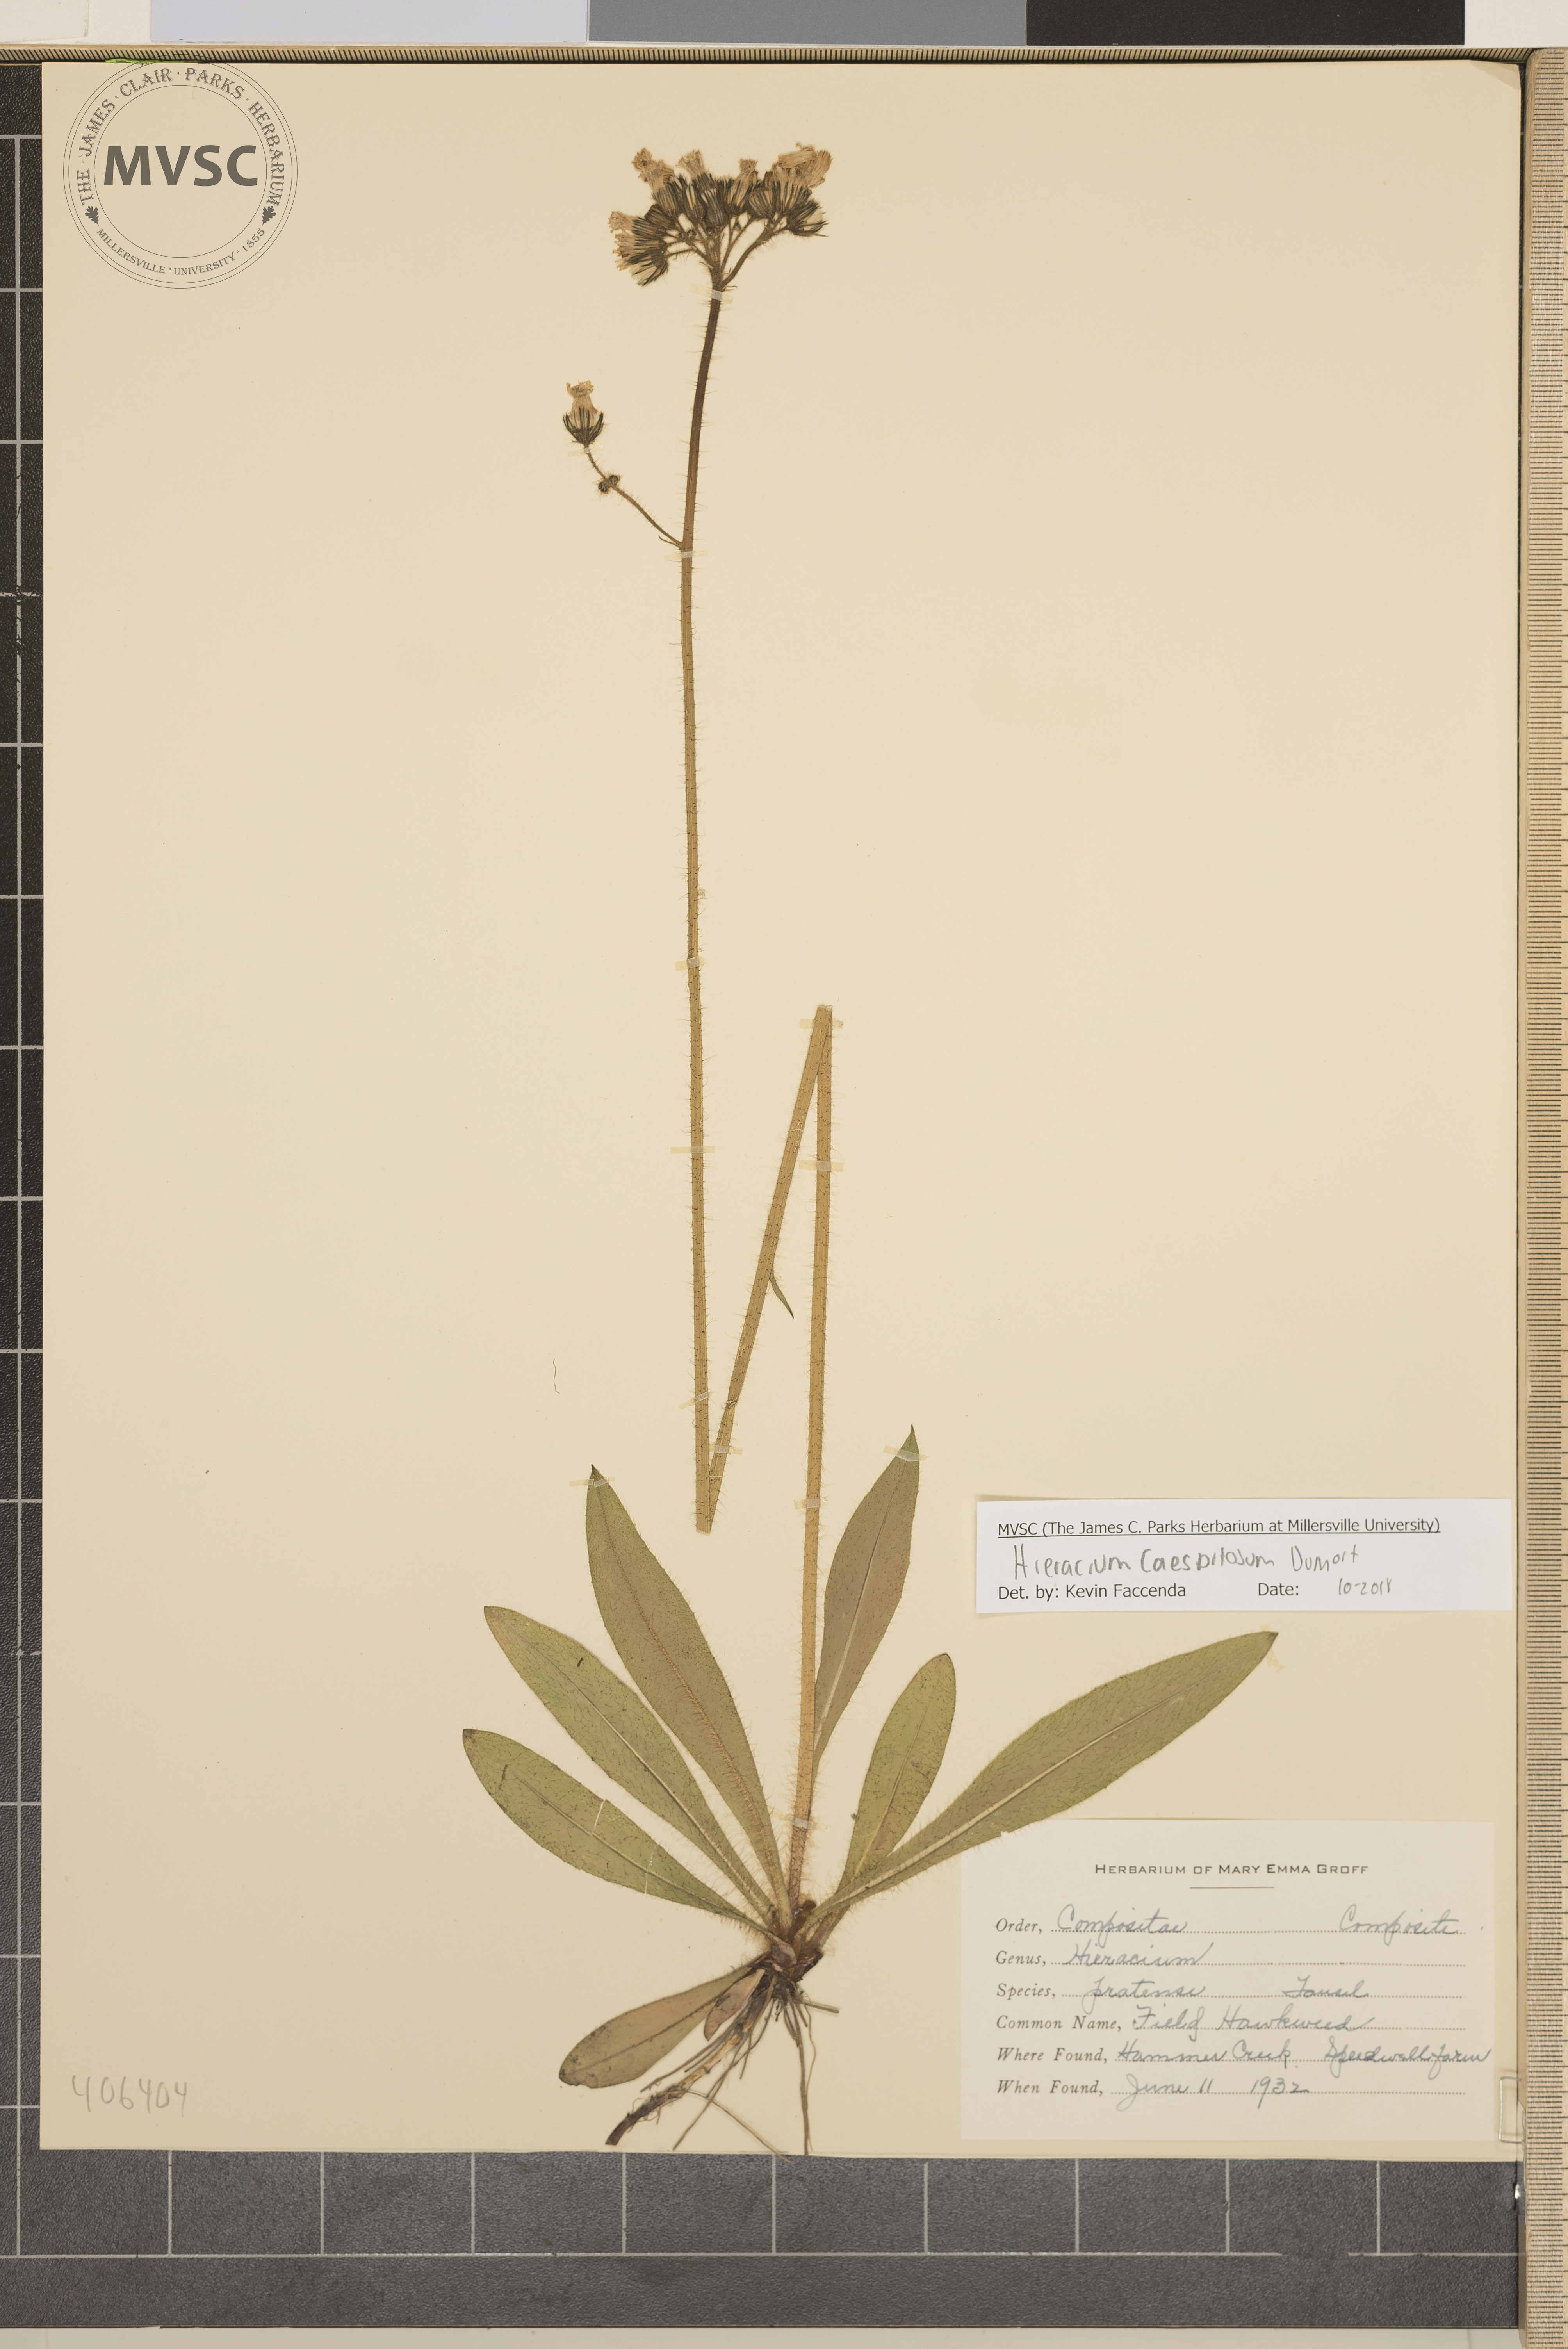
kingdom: Plantae
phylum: Tracheophyta
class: Magnoliopsida
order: Asterales
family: Asteraceae
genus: Pilosella
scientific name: Pilosella caespitosa
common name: field hawkweed
